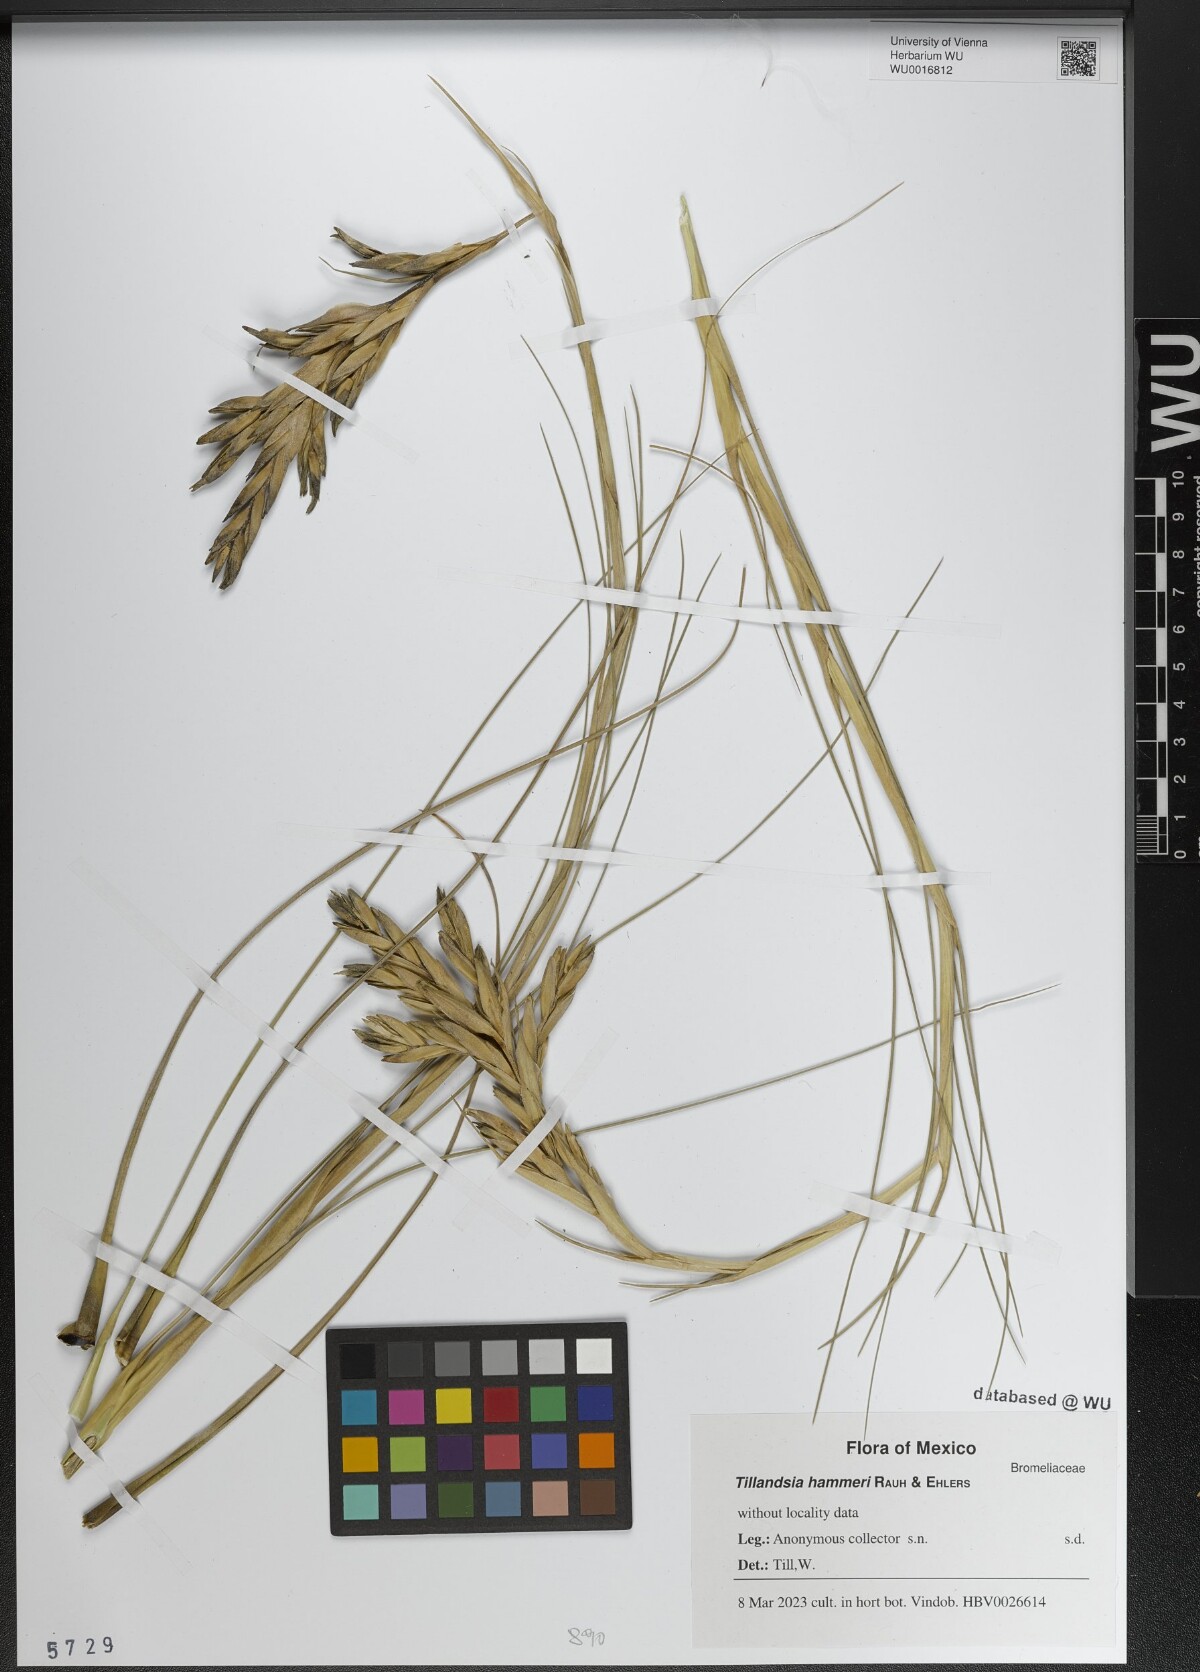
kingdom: Plantae
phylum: Tracheophyta
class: Liliopsida
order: Poales
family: Bromeliaceae
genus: Tillandsia
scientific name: Tillandsia hammeri
